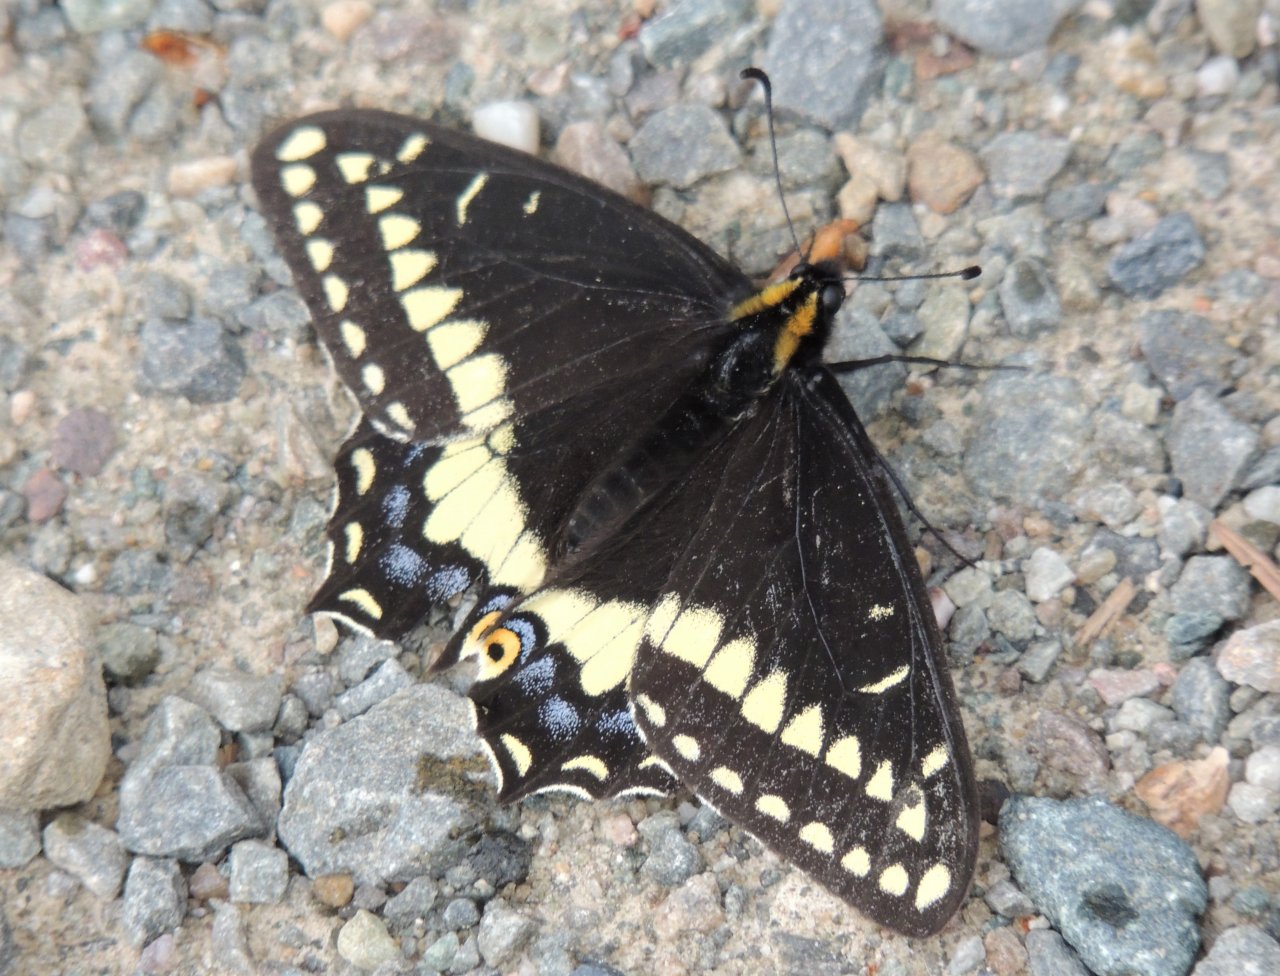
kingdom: Animalia
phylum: Arthropoda
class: Insecta
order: Lepidoptera
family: Papilionidae
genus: Papilio
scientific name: Papilio indra
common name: Indra Swallowtail
